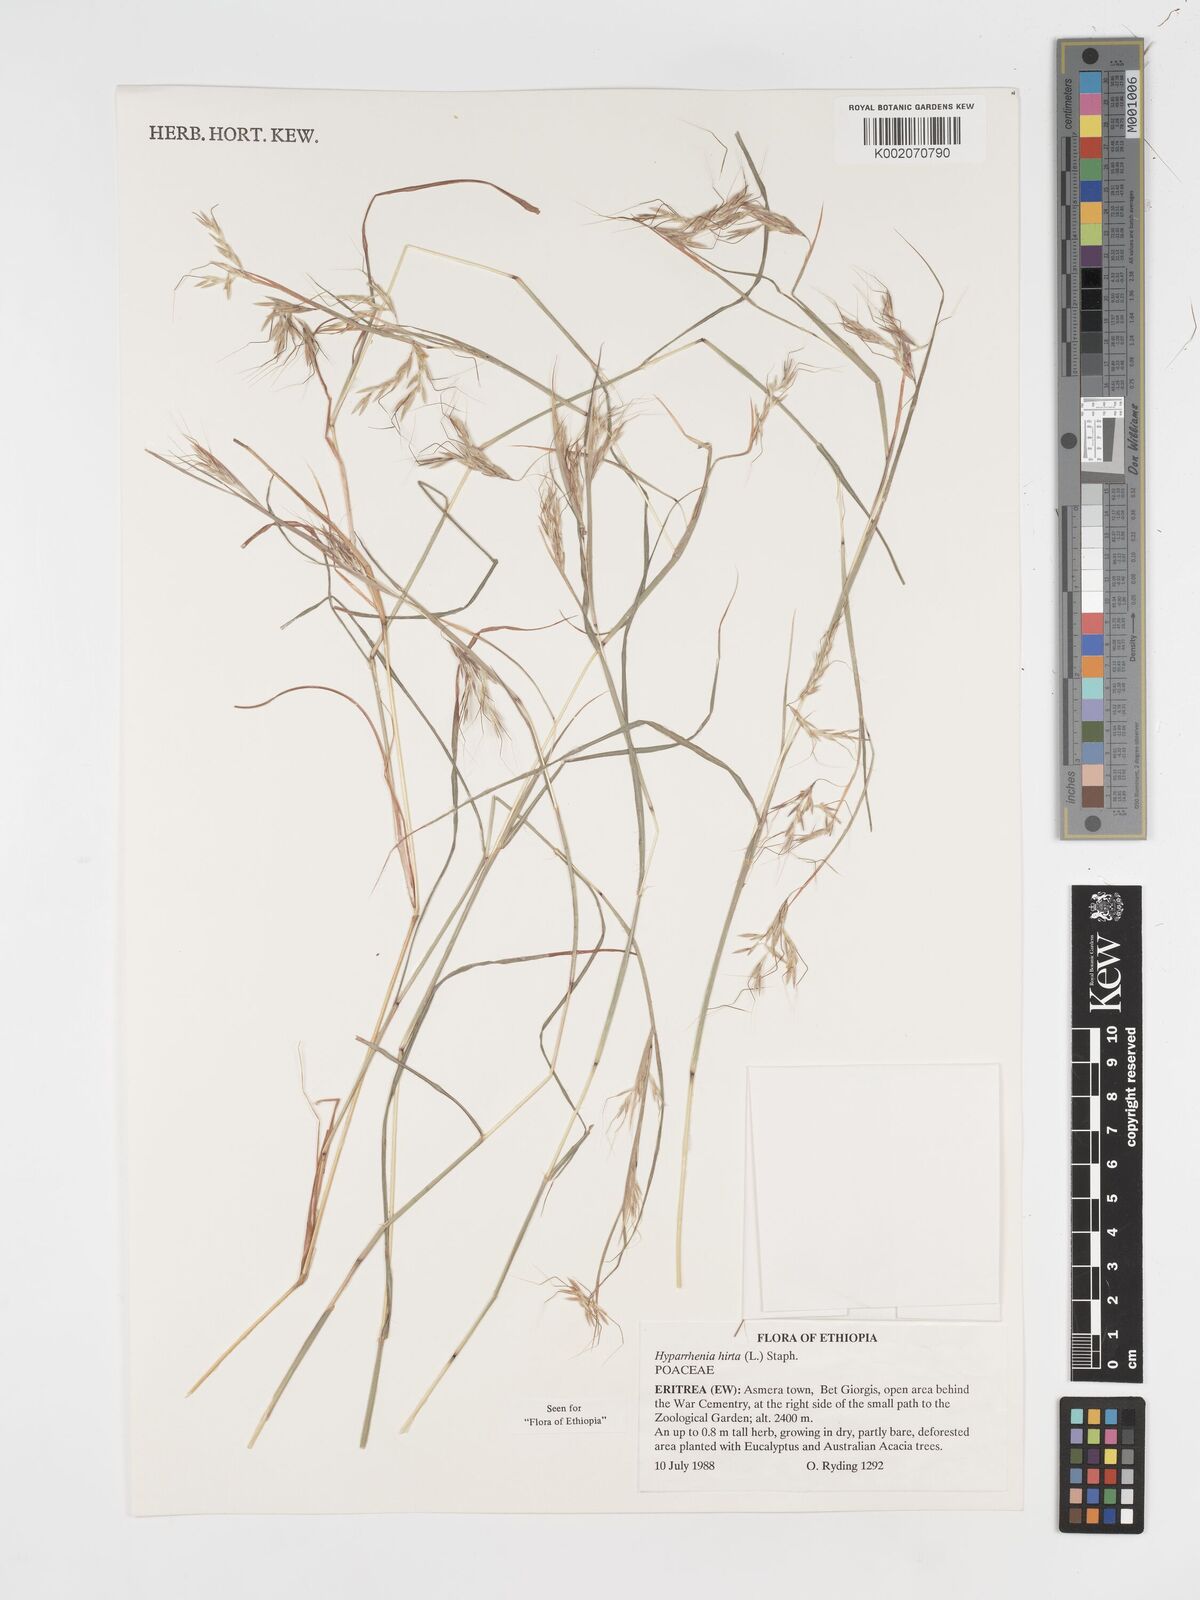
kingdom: Plantae
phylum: Tracheophyta
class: Liliopsida
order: Poales
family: Poaceae
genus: Hyparrhenia
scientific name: Hyparrhenia hirta
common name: Thatching grass
